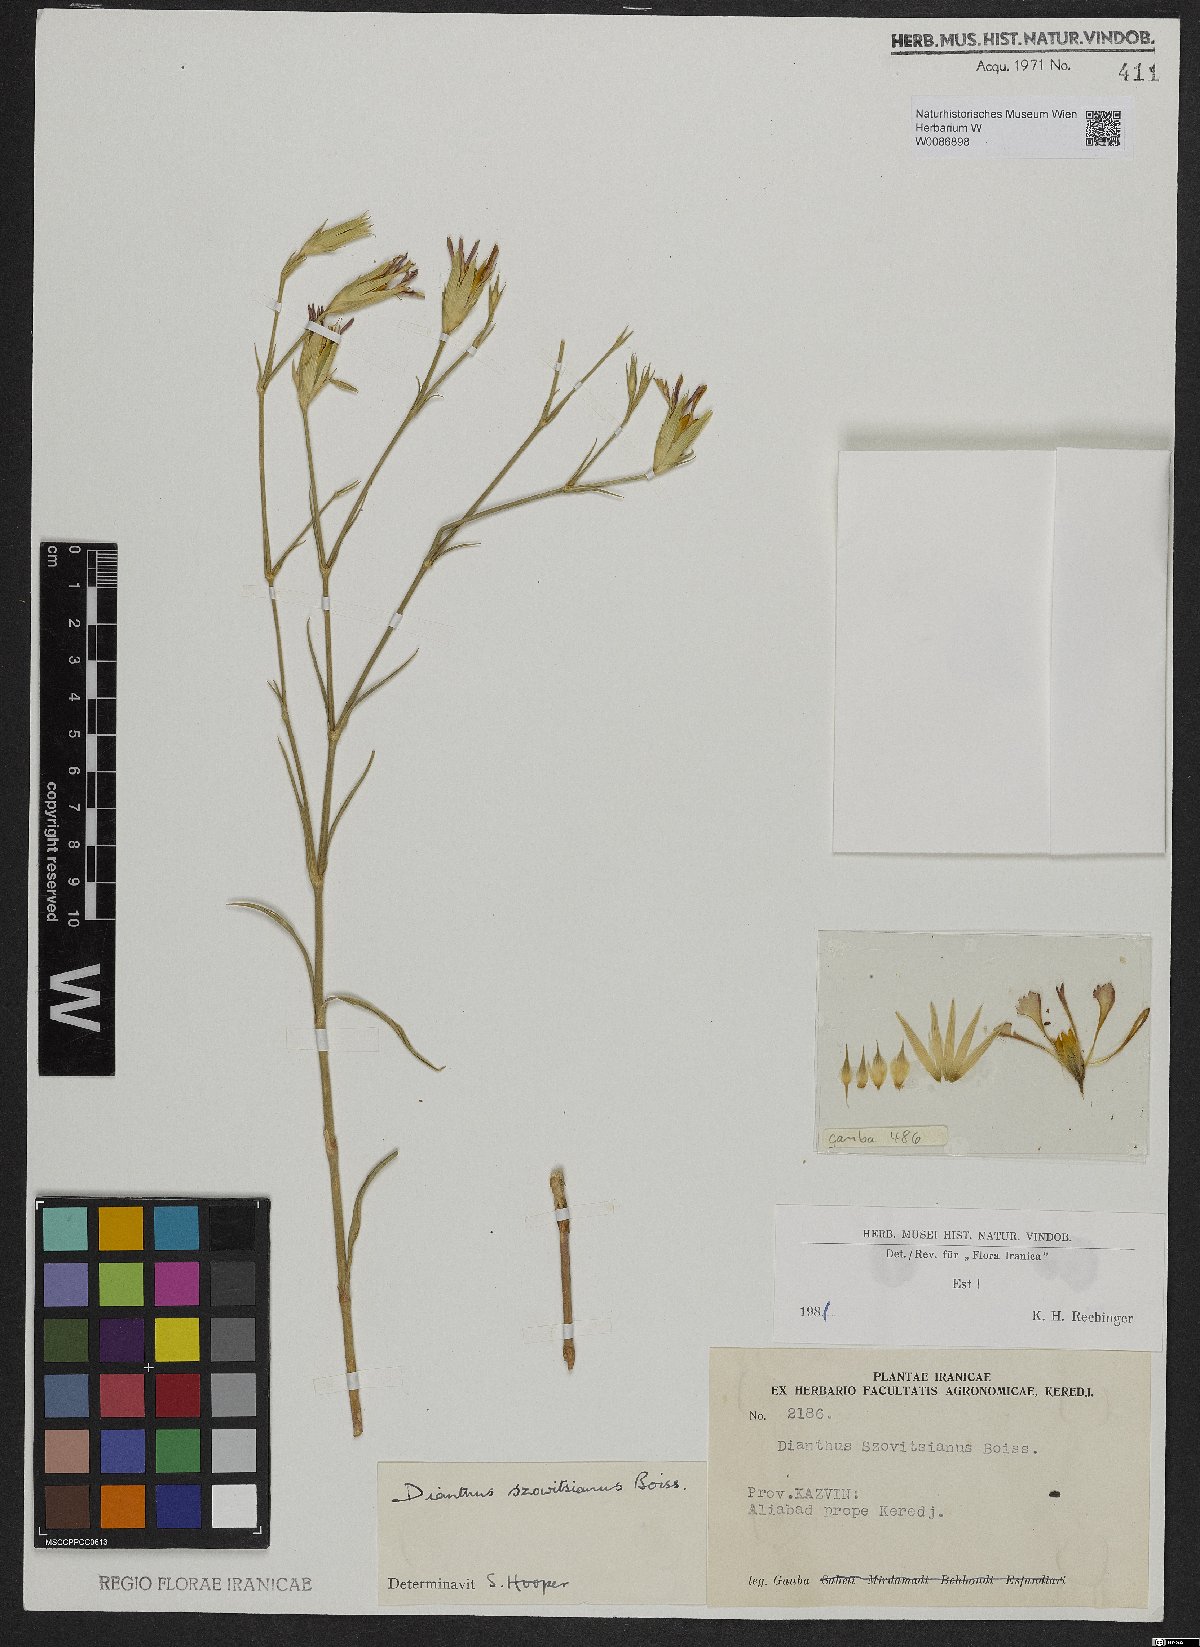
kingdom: Plantae
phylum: Tracheophyta
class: Magnoliopsida
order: Caryophyllales
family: Caryophyllaceae
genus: Dianthus
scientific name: Dianthus szowitsianus
